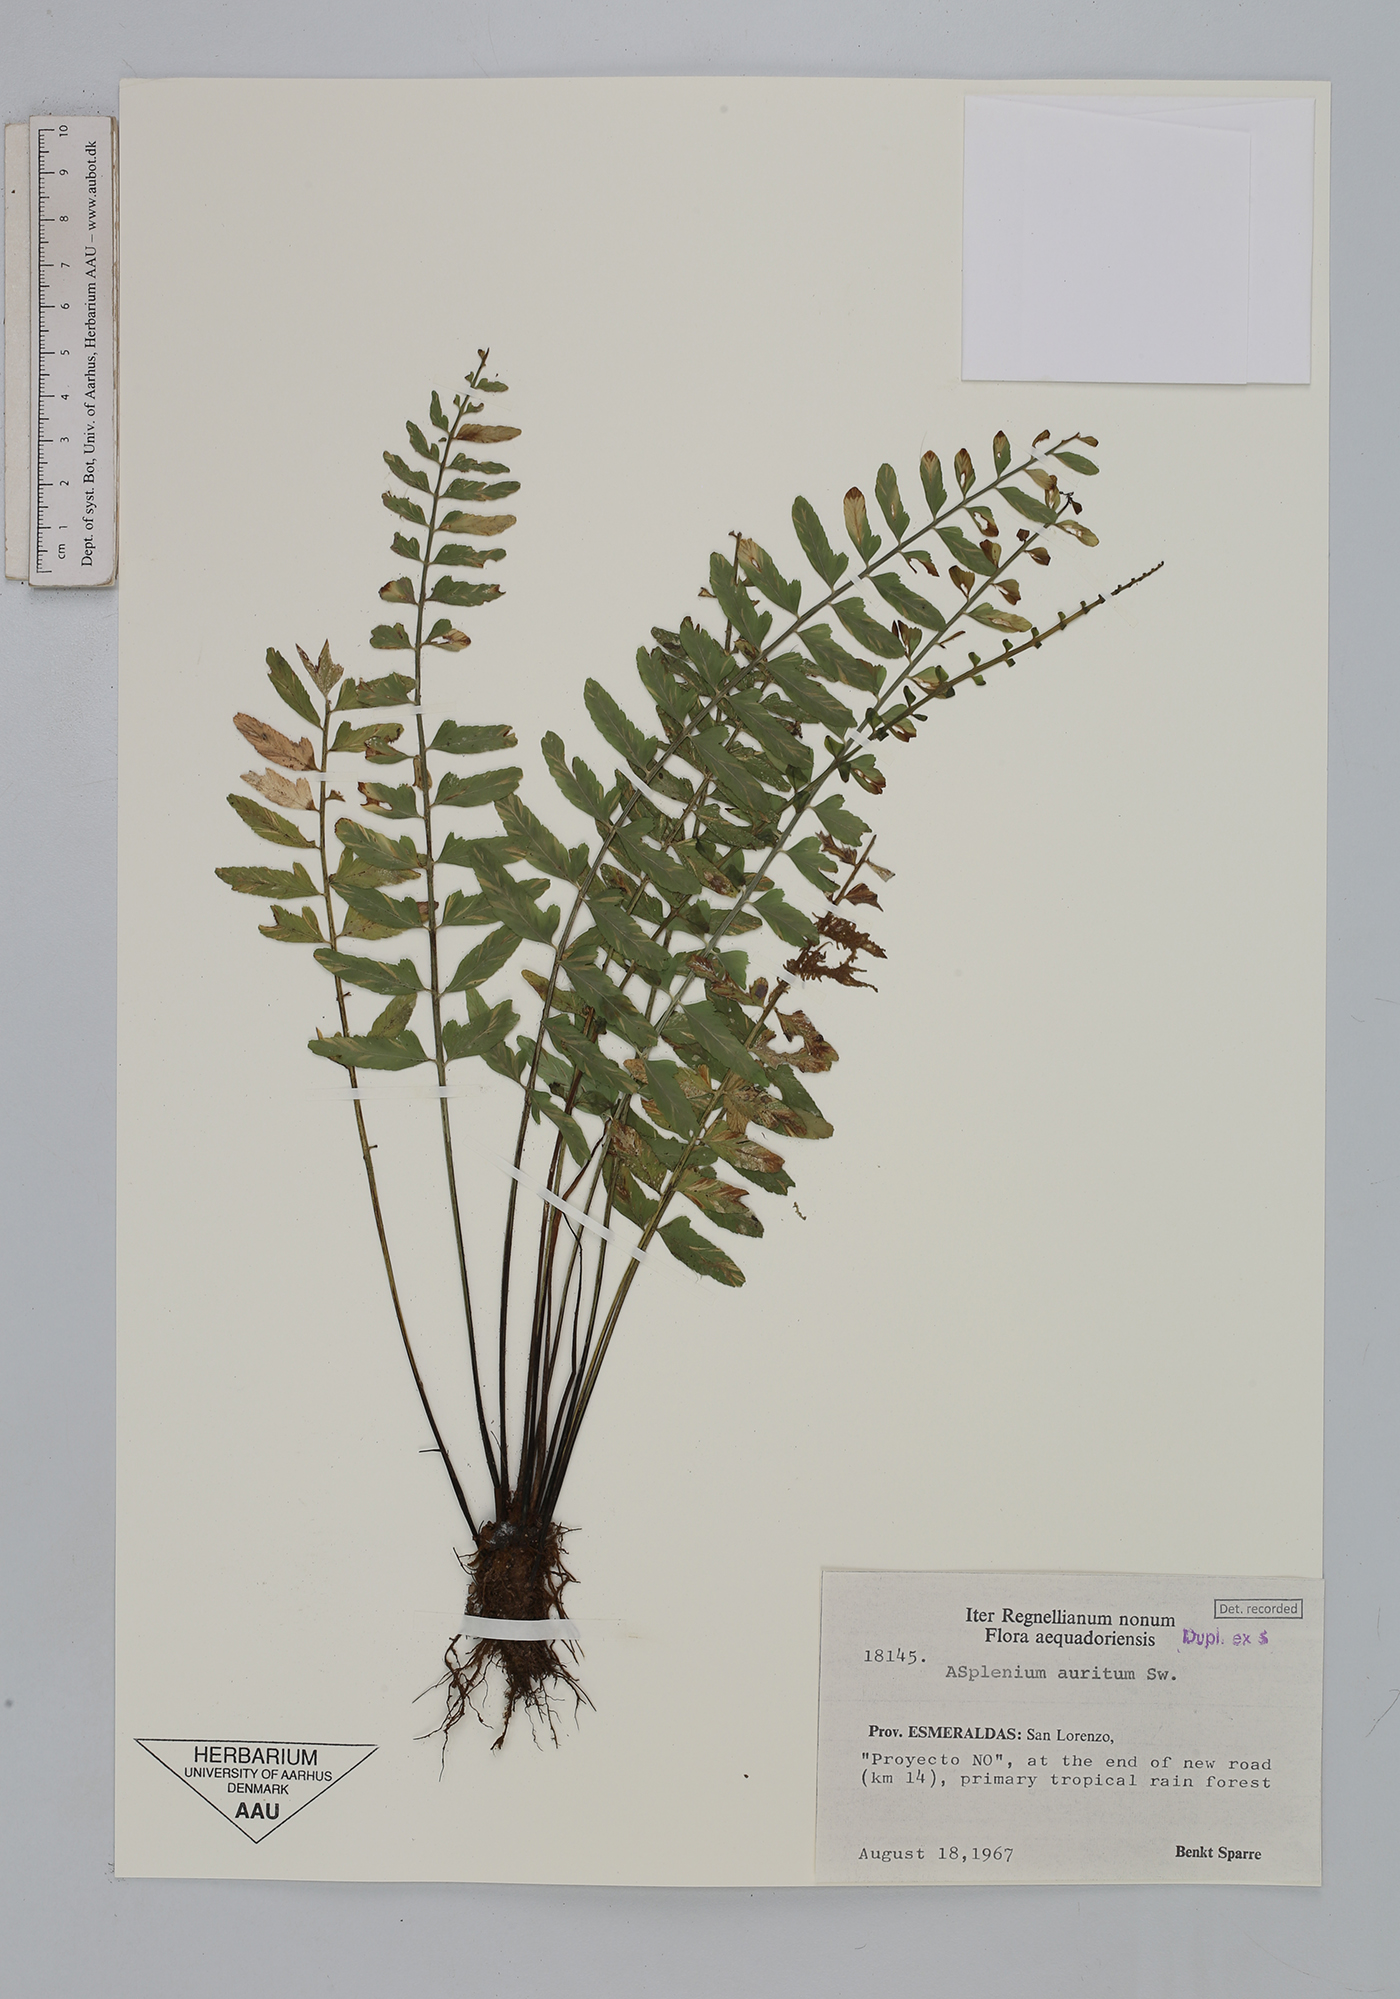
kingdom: Plantae
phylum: Tracheophyta
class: Polypodiopsida
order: Polypodiales
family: Aspleniaceae
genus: Asplenium
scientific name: Asplenium auritum
